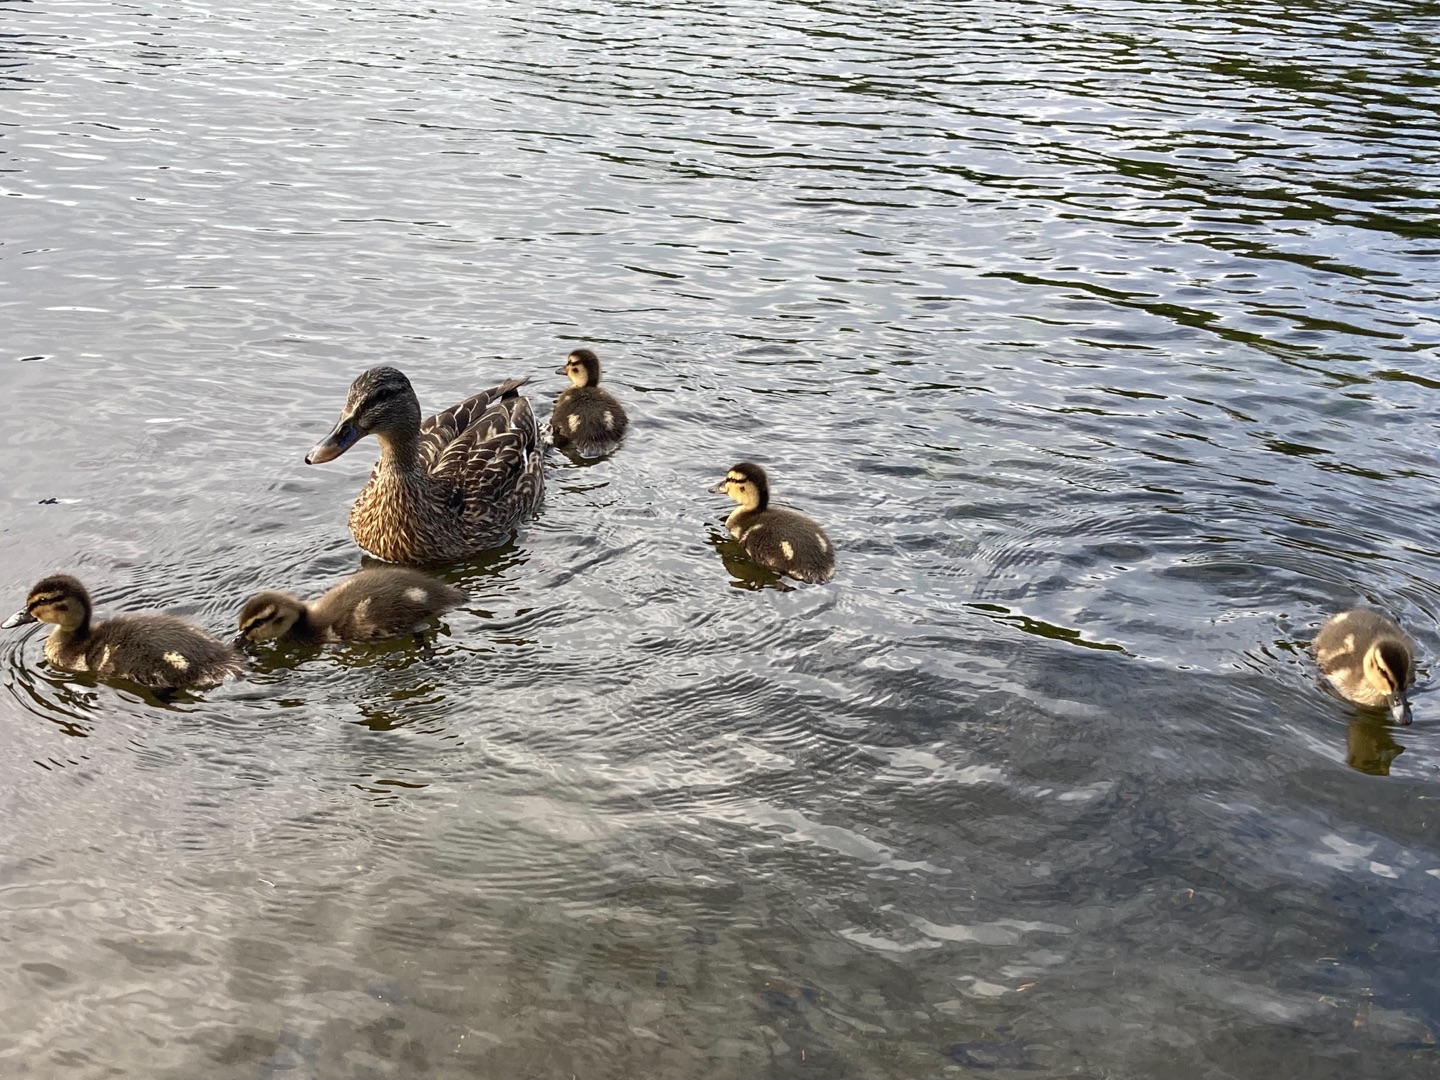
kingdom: Animalia
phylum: Chordata
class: Aves
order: Anseriformes
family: Anatidae
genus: Anas
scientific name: Anas platyrhynchos
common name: Gråand
